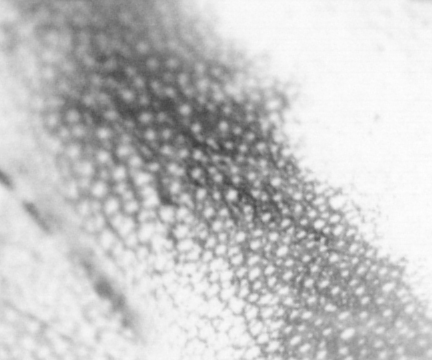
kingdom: Animalia
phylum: Chordata
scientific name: Chordata
